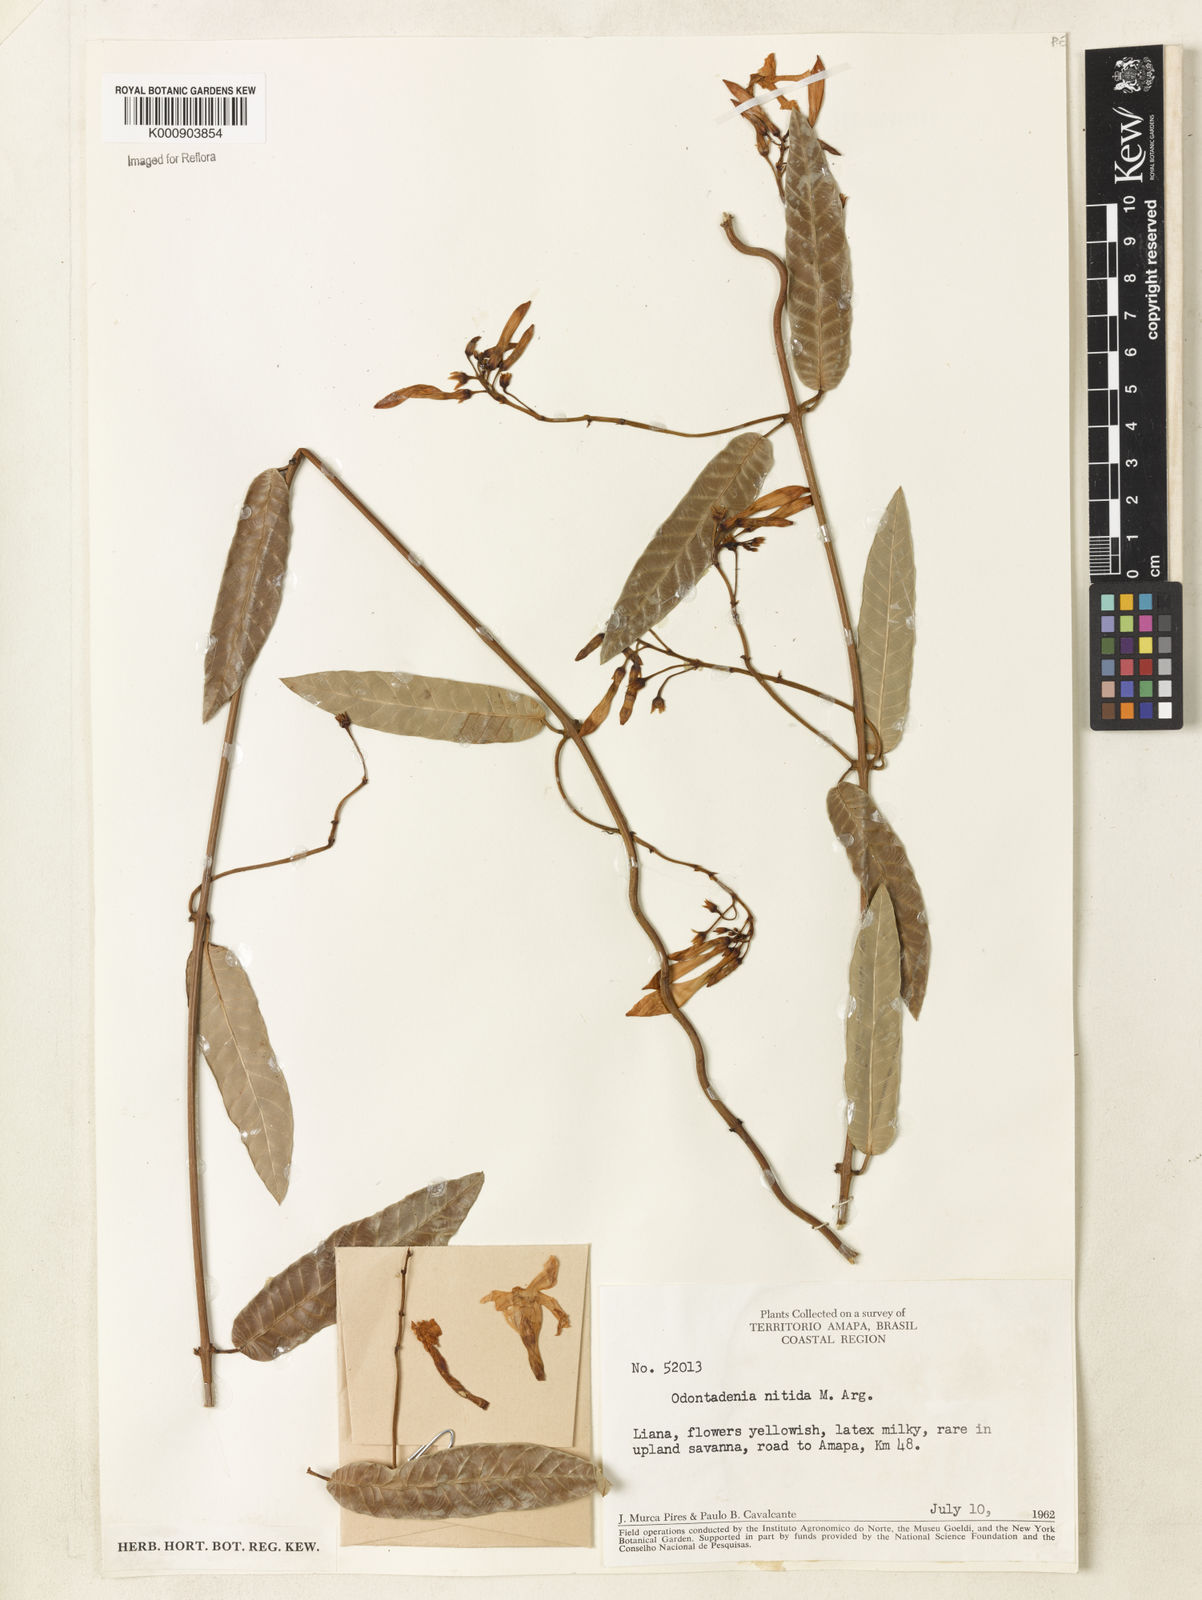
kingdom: Plantae
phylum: Tracheophyta
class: Magnoliopsida
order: Gentianales
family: Apocynaceae
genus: Odontadenia
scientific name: Odontadenia
